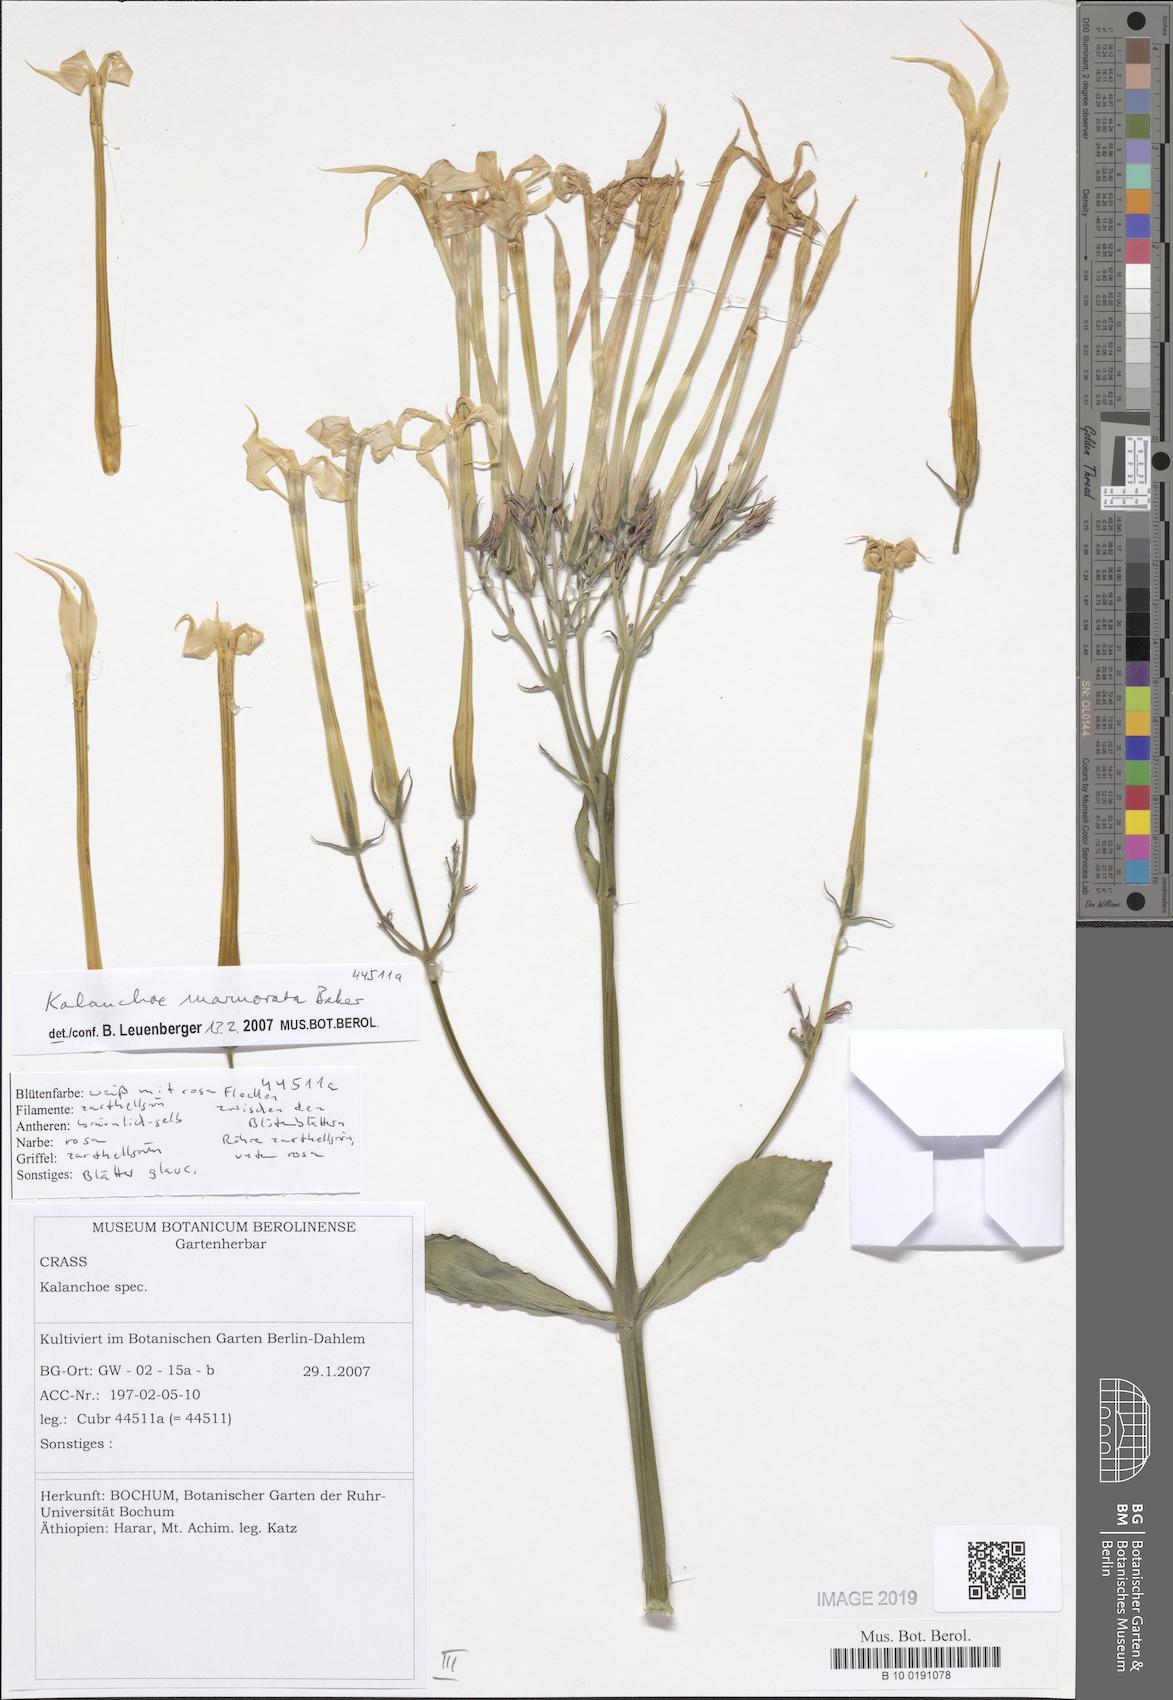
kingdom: Plantae
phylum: Tracheophyta
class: Magnoliopsida
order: Saxifragales
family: Crassulaceae
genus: Kalanchoe
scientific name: Kalanchoe marmorata
